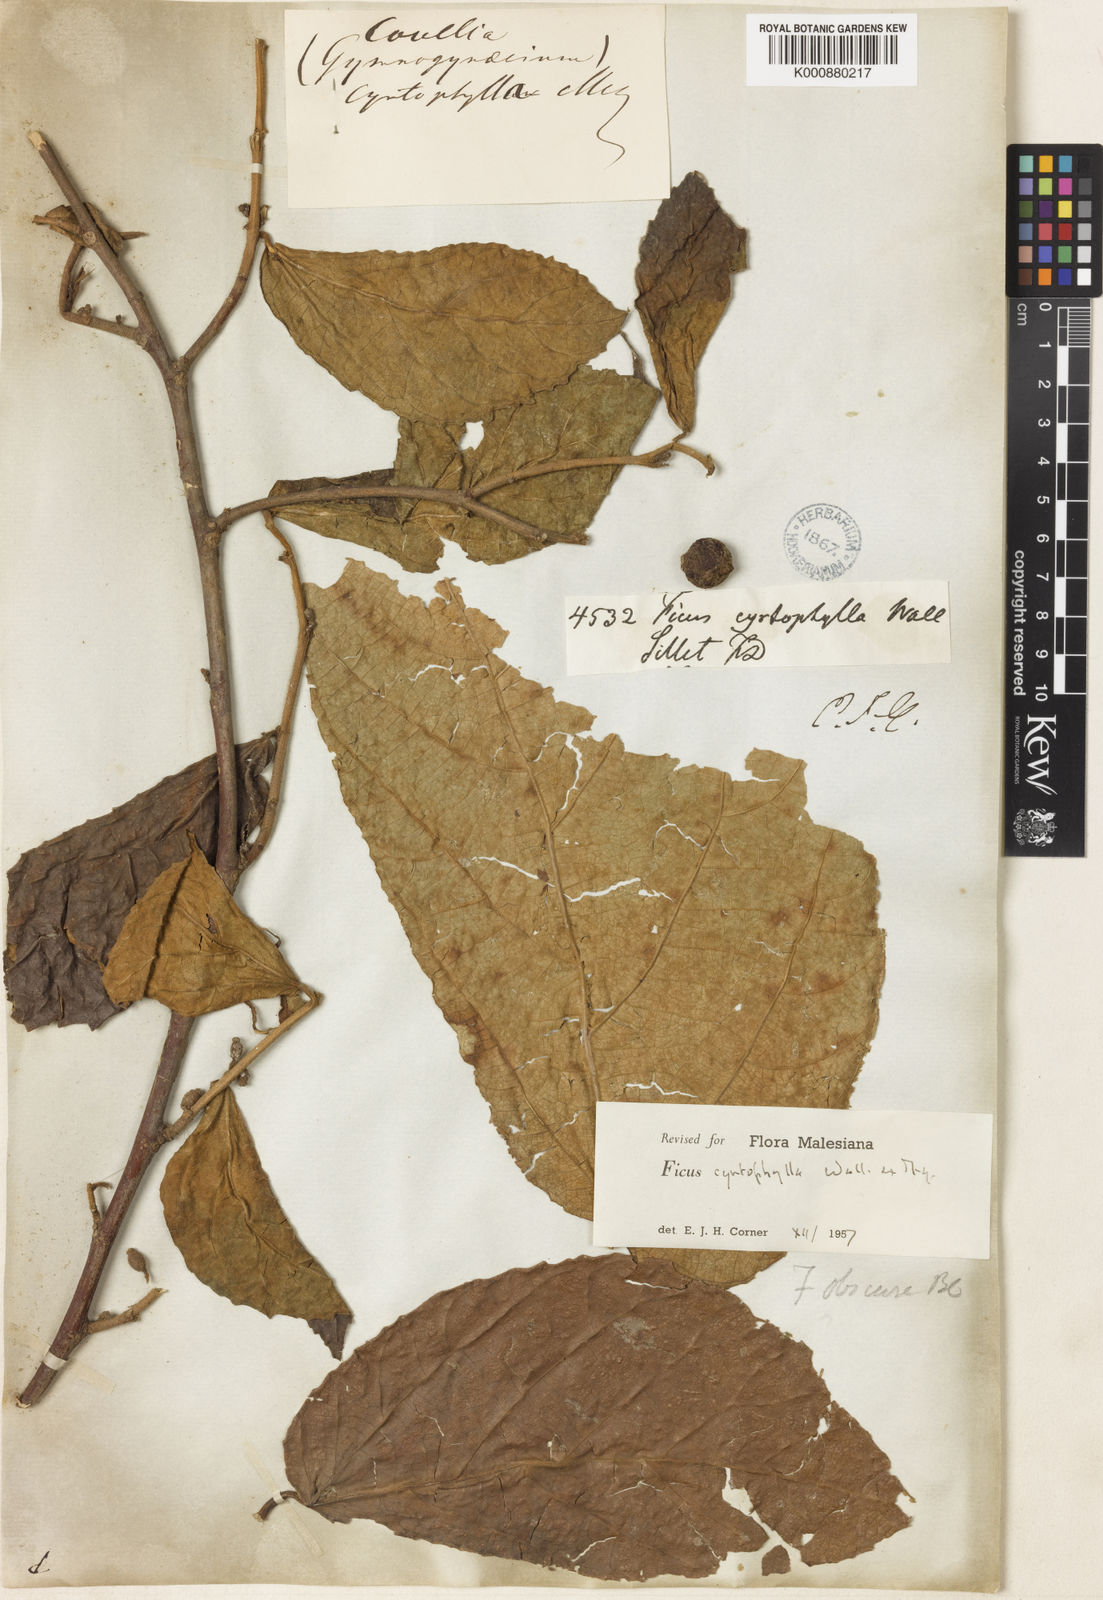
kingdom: Plantae
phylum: Tracheophyta
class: Magnoliopsida
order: Rosales
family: Moraceae
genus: Ficus
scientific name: Ficus cyrtophylla
